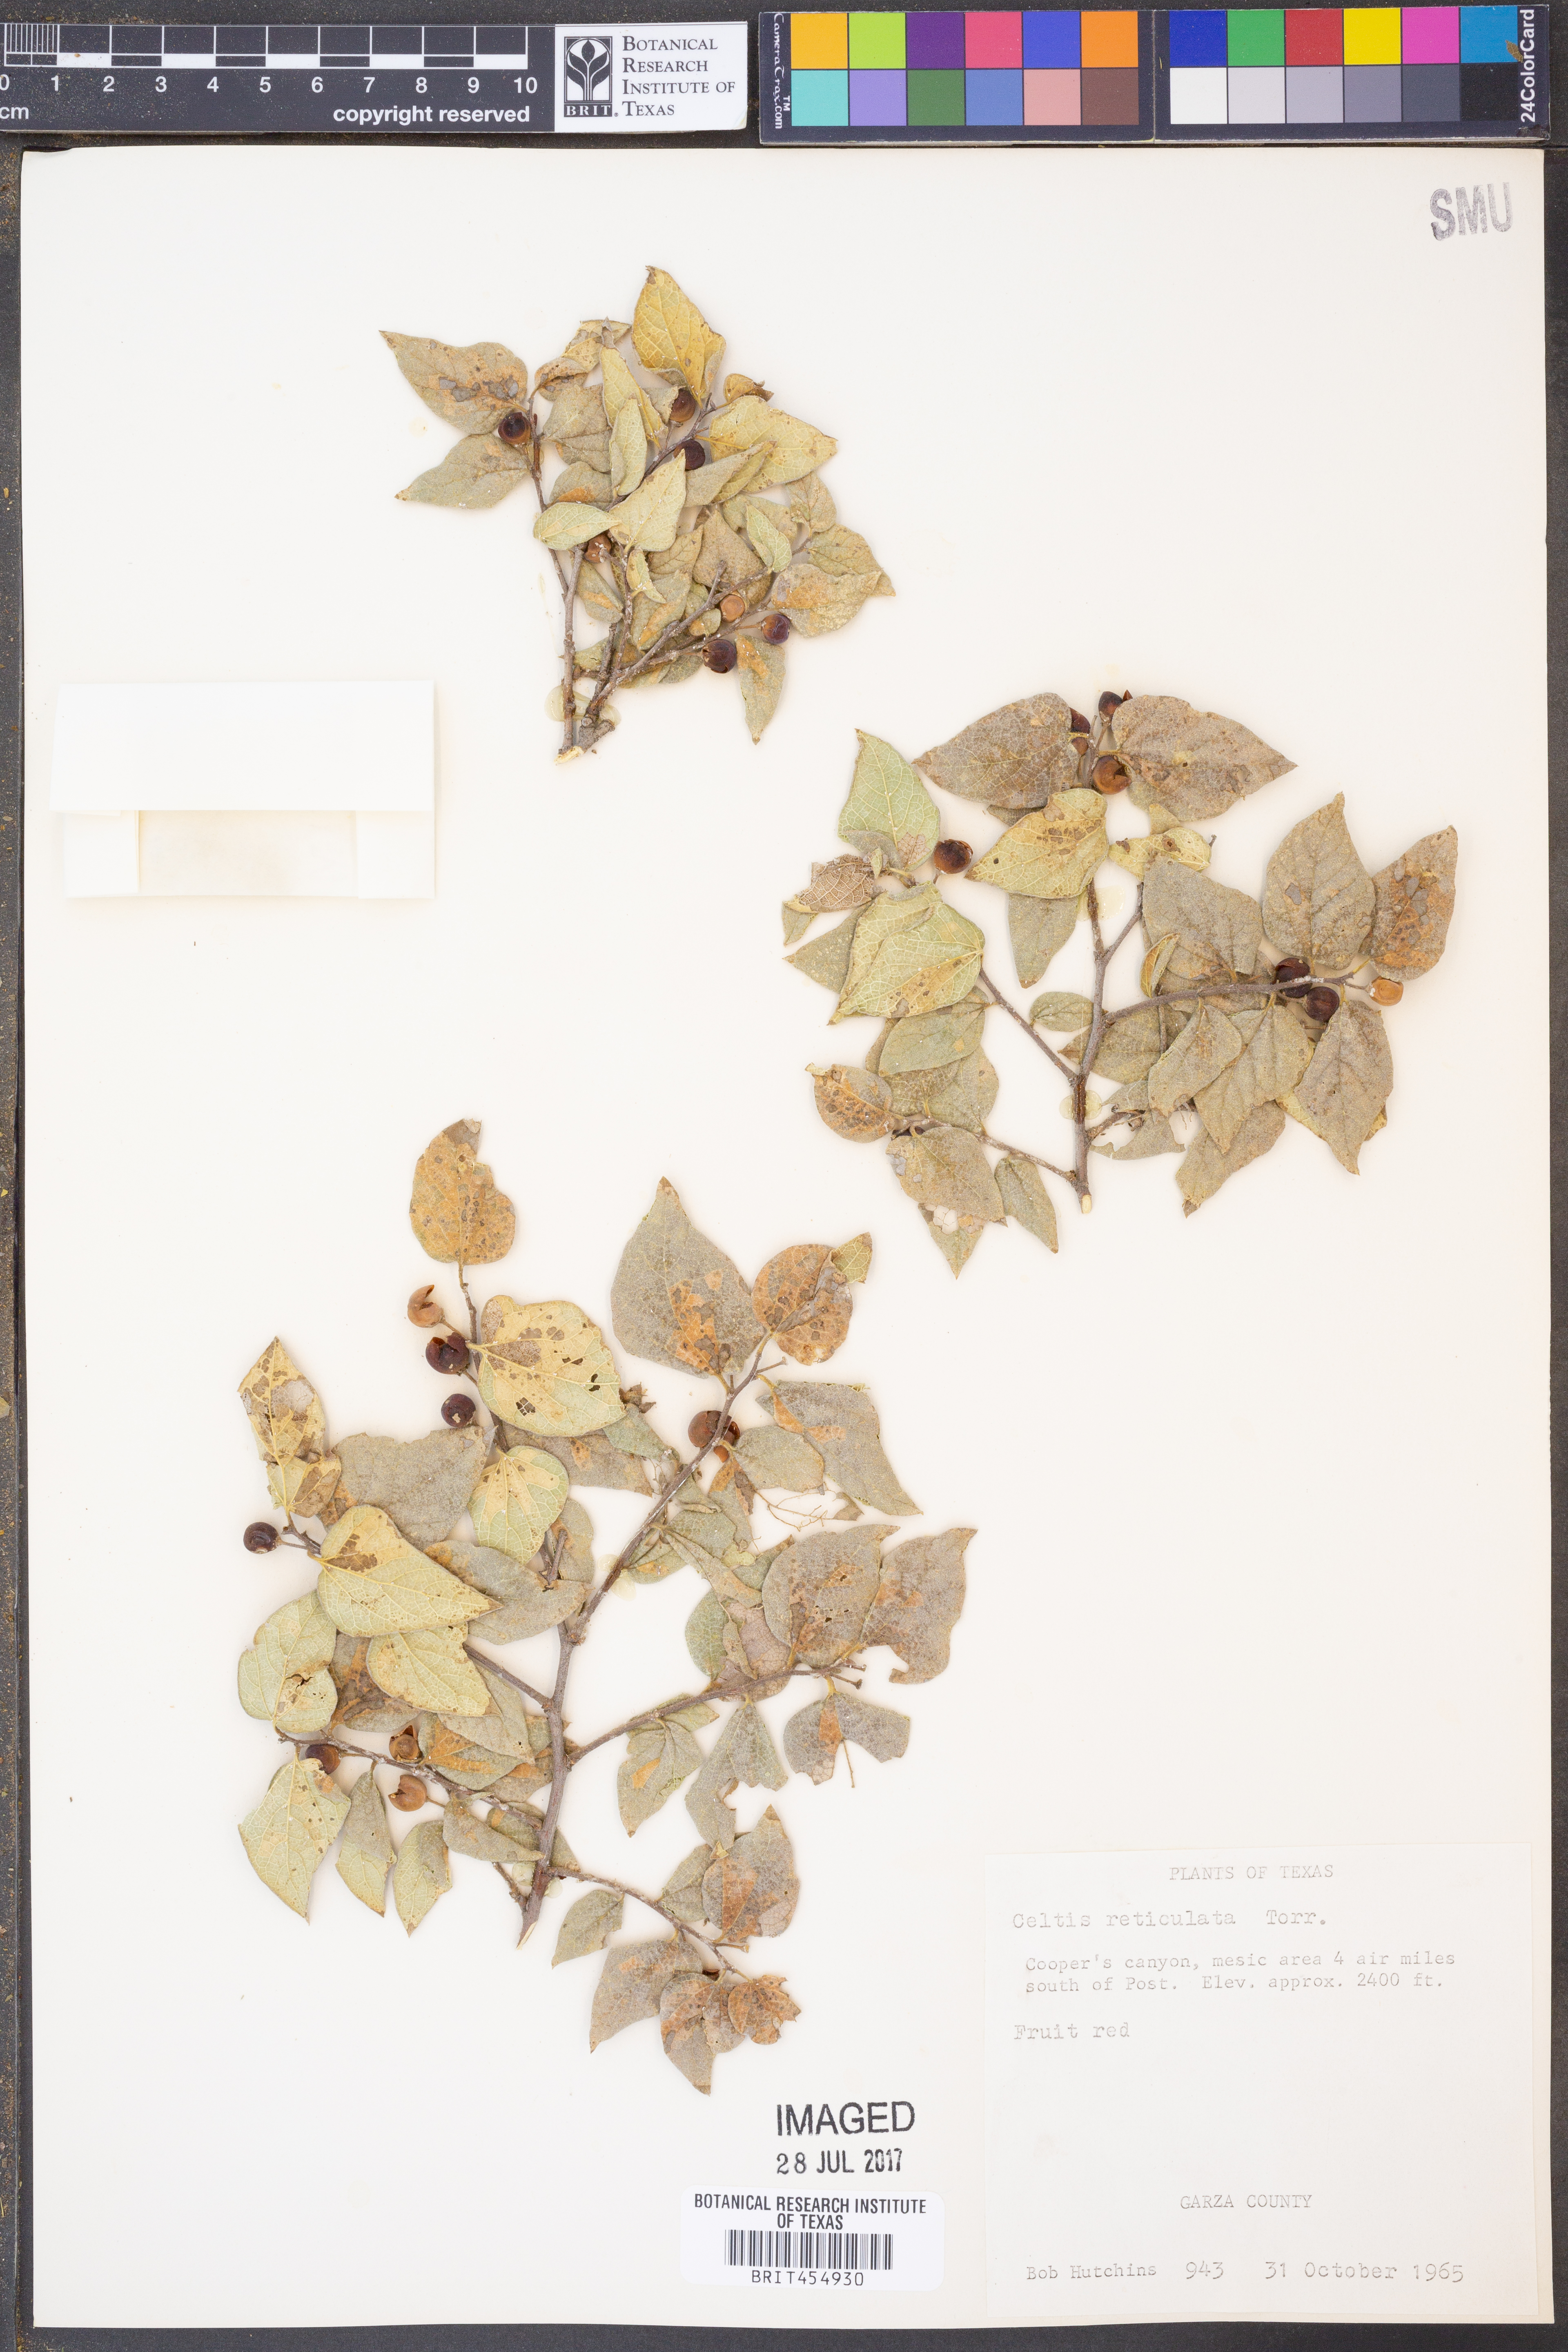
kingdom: Plantae
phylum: Tracheophyta
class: Magnoliopsida
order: Rosales
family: Cannabaceae
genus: Celtis
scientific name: Celtis reticulata
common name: Netleaf hackberry
